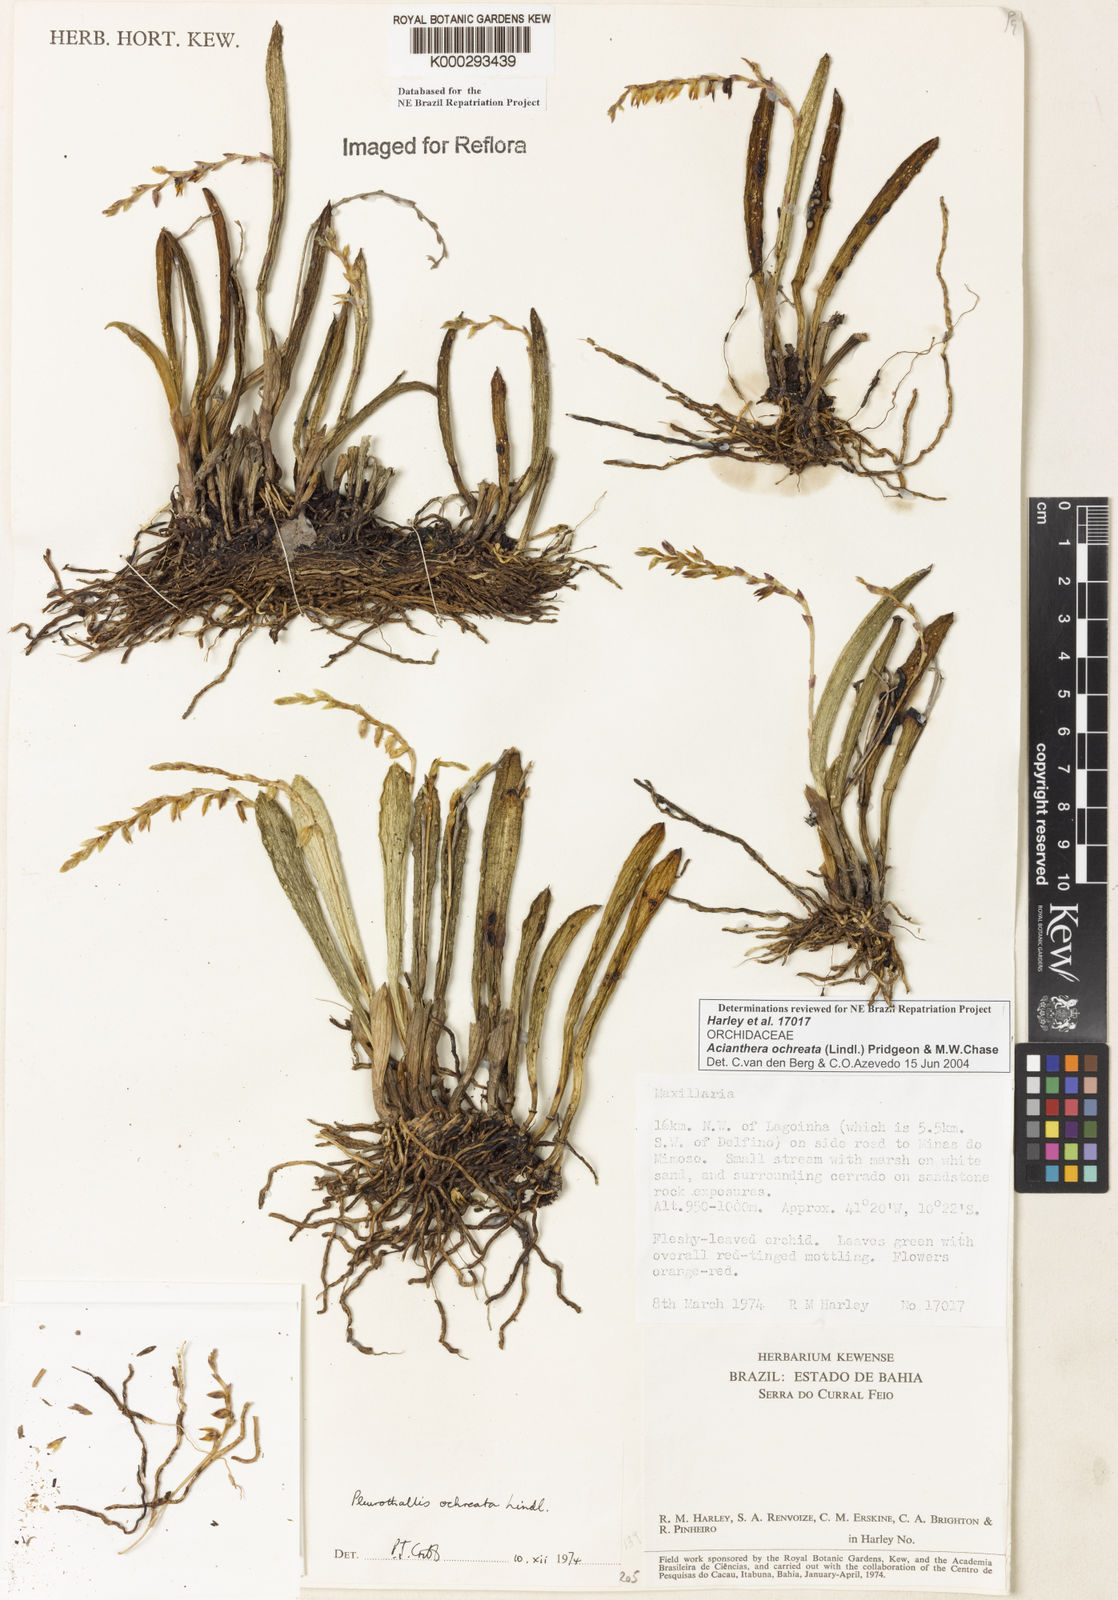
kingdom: Plantae
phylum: Tracheophyta
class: Liliopsida
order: Asparagales
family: Orchidaceae
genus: Acianthera
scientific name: Acianthera ochreata
